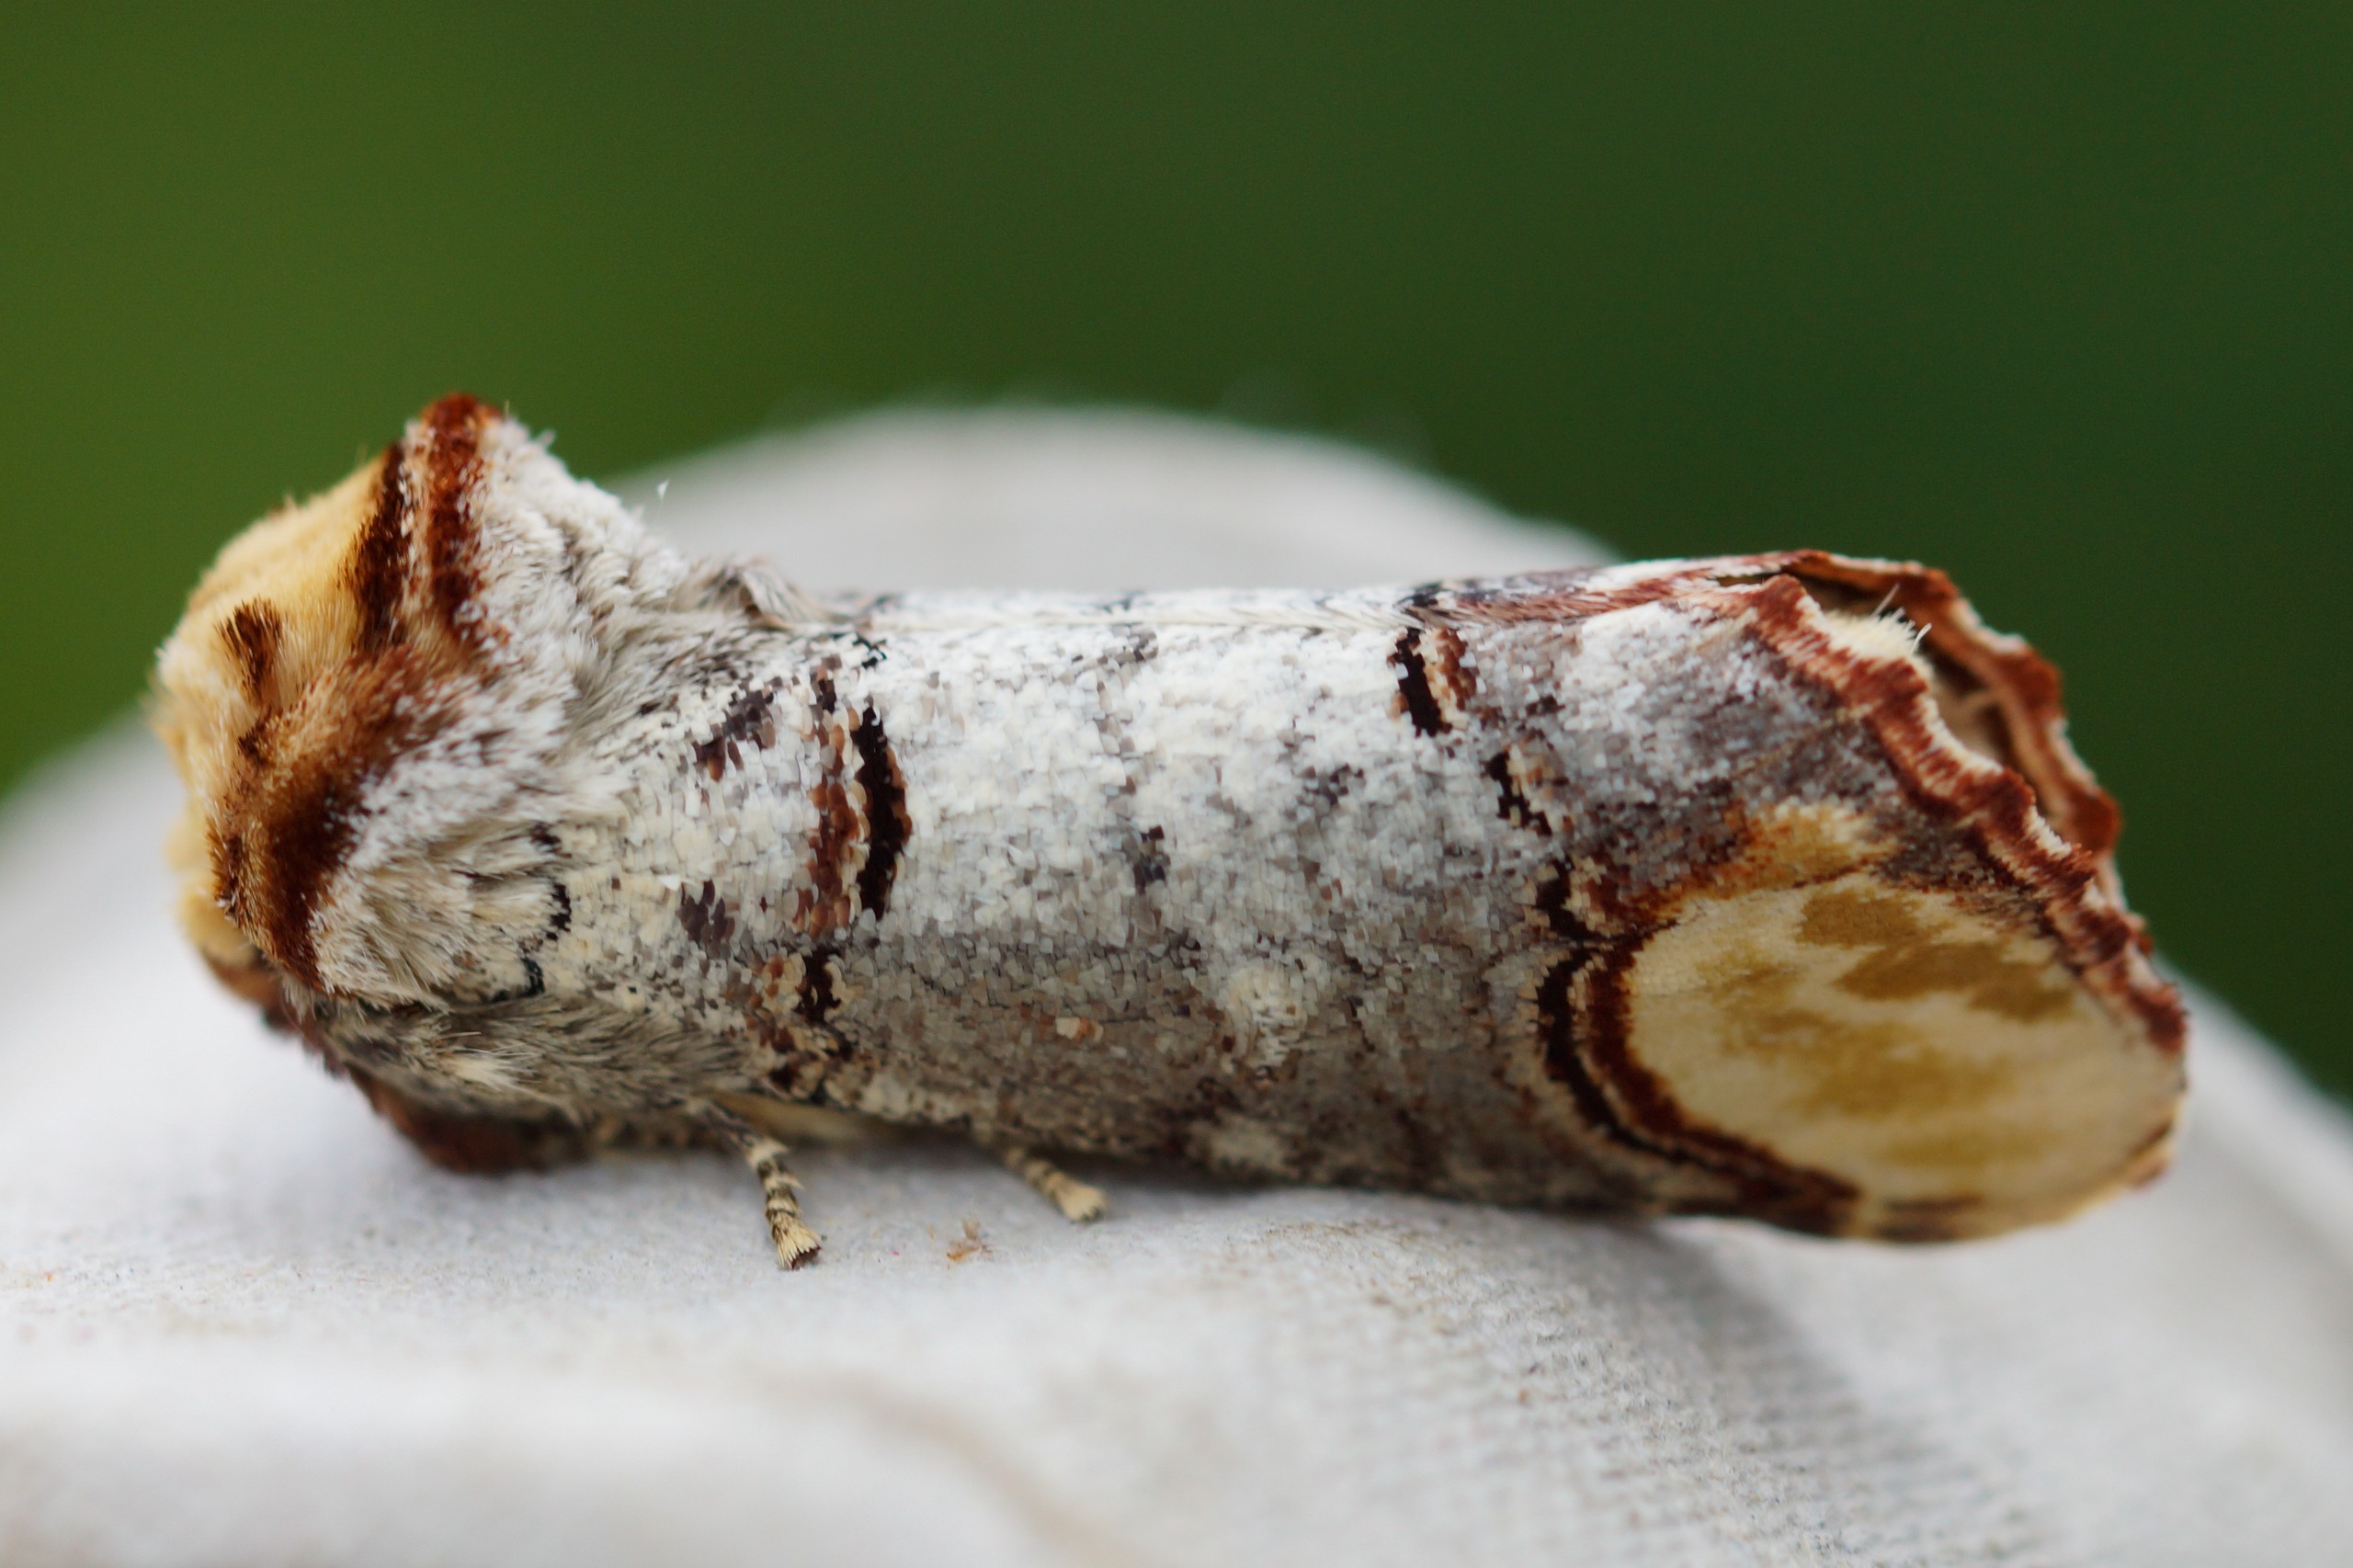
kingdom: Animalia
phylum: Arthropoda
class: Insecta
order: Lepidoptera
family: Notodontidae
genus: Phalera
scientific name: Phalera bucephala
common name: Måneplet
